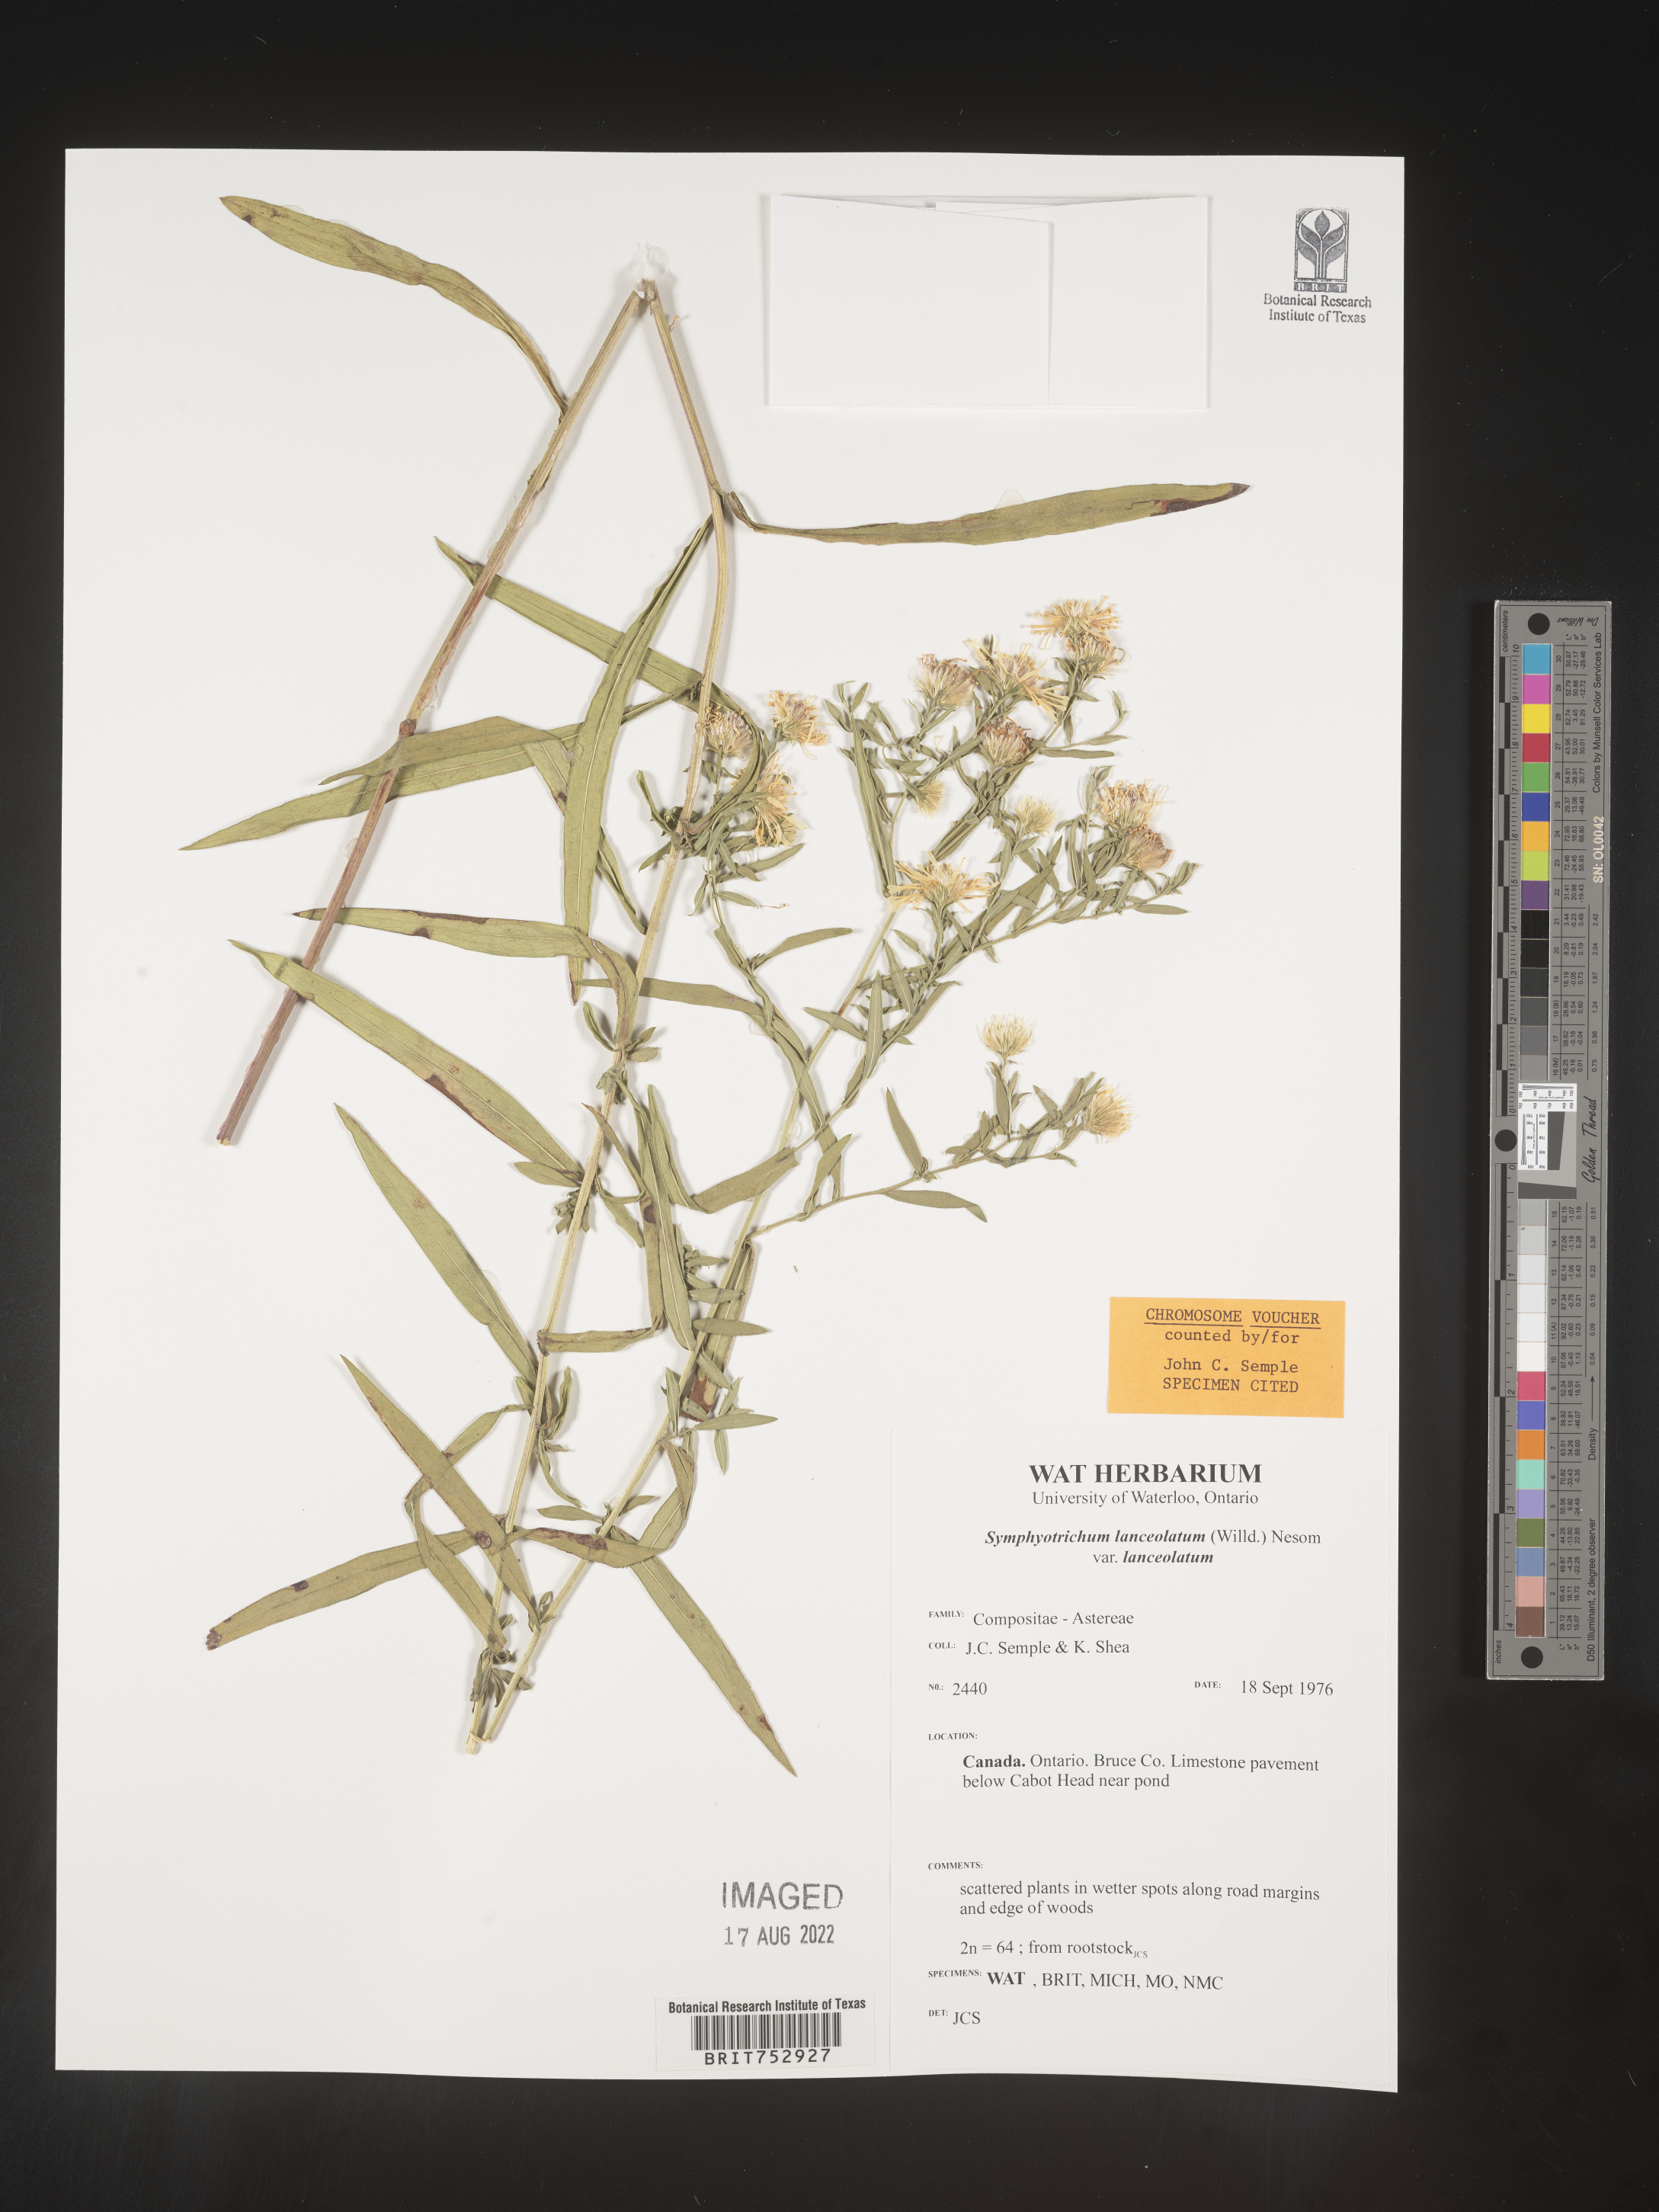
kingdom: Plantae
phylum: Tracheophyta
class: Magnoliopsida
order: Asterales
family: Asteraceae
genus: Symphyotrichum
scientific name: Symphyotrichum lanceolatum
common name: Panicled aster
